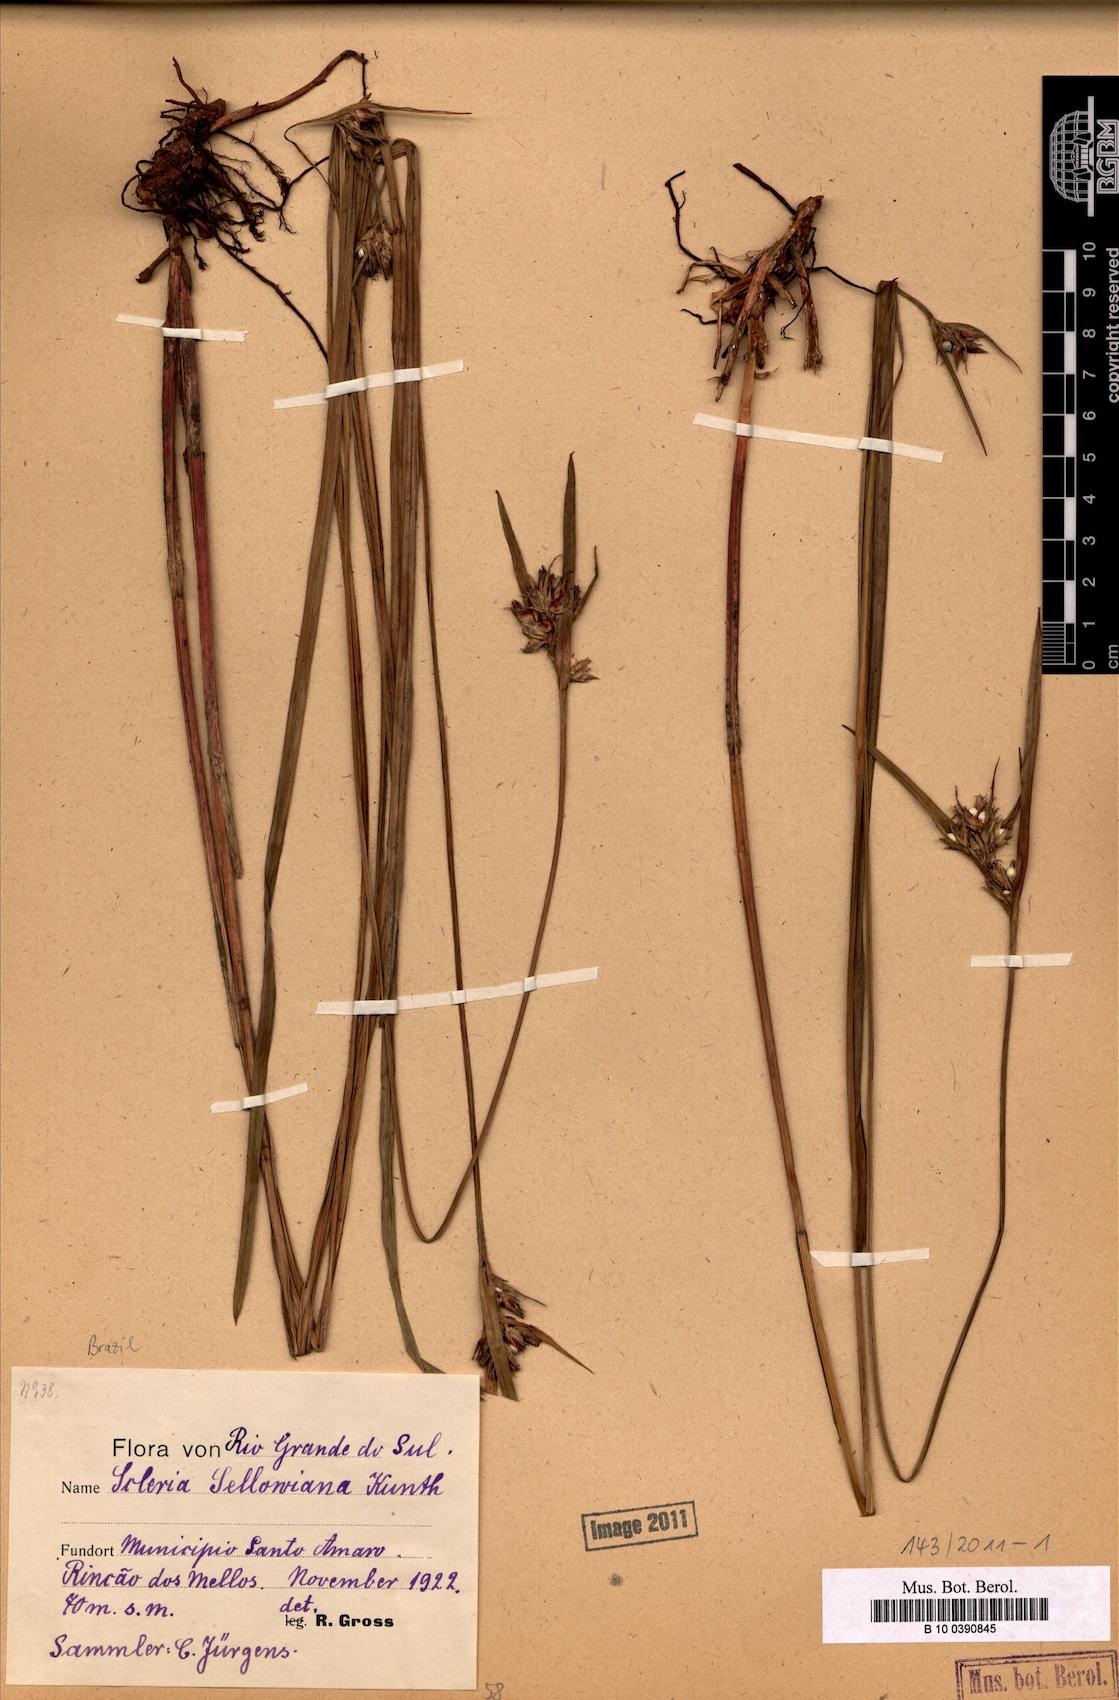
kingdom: Plantae
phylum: Tracheophyta
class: Liliopsida
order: Poales
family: Cyperaceae
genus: Scleria
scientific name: Scleria sellowiana
